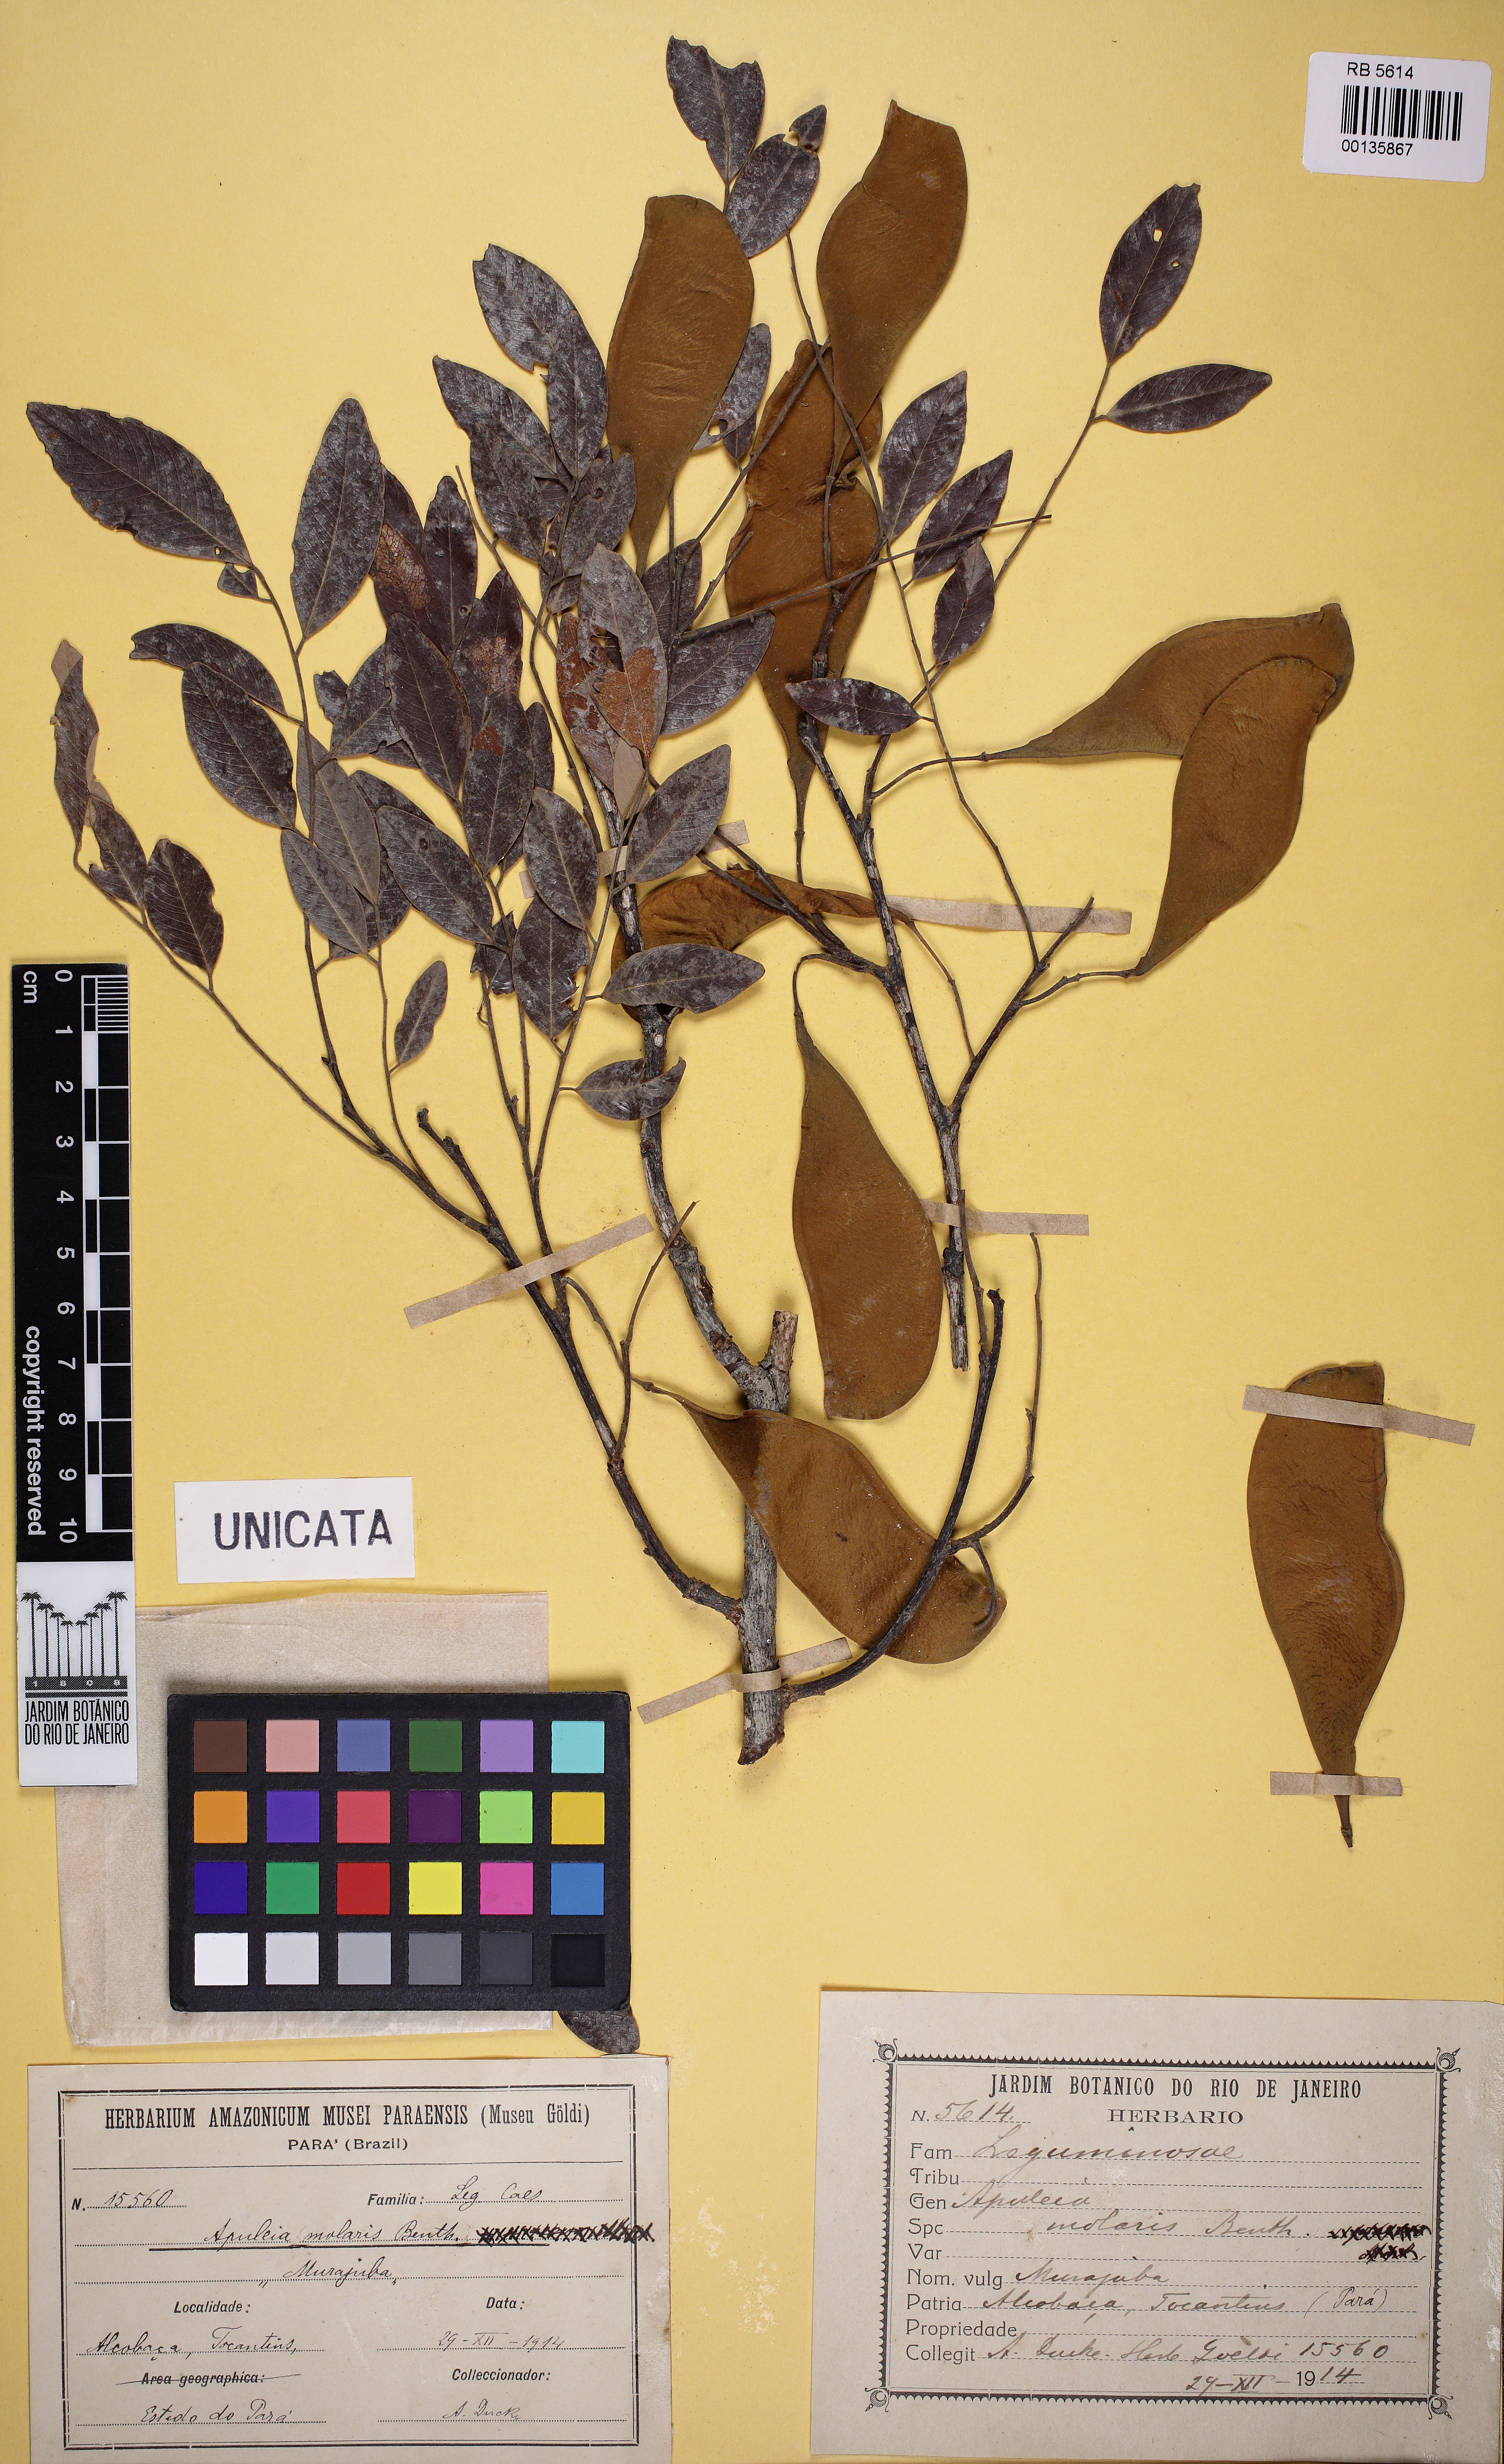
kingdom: Plantae
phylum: Tracheophyta
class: Magnoliopsida
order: Fabales
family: Fabaceae
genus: Apuleia
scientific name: Apuleia leiocarpa
